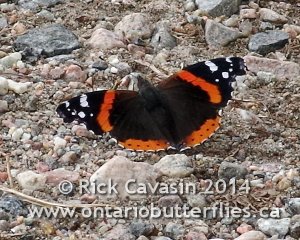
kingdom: Animalia
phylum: Arthropoda
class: Insecta
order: Lepidoptera
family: Nymphalidae
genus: Vanessa
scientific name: Vanessa atalanta
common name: Red Admiral
